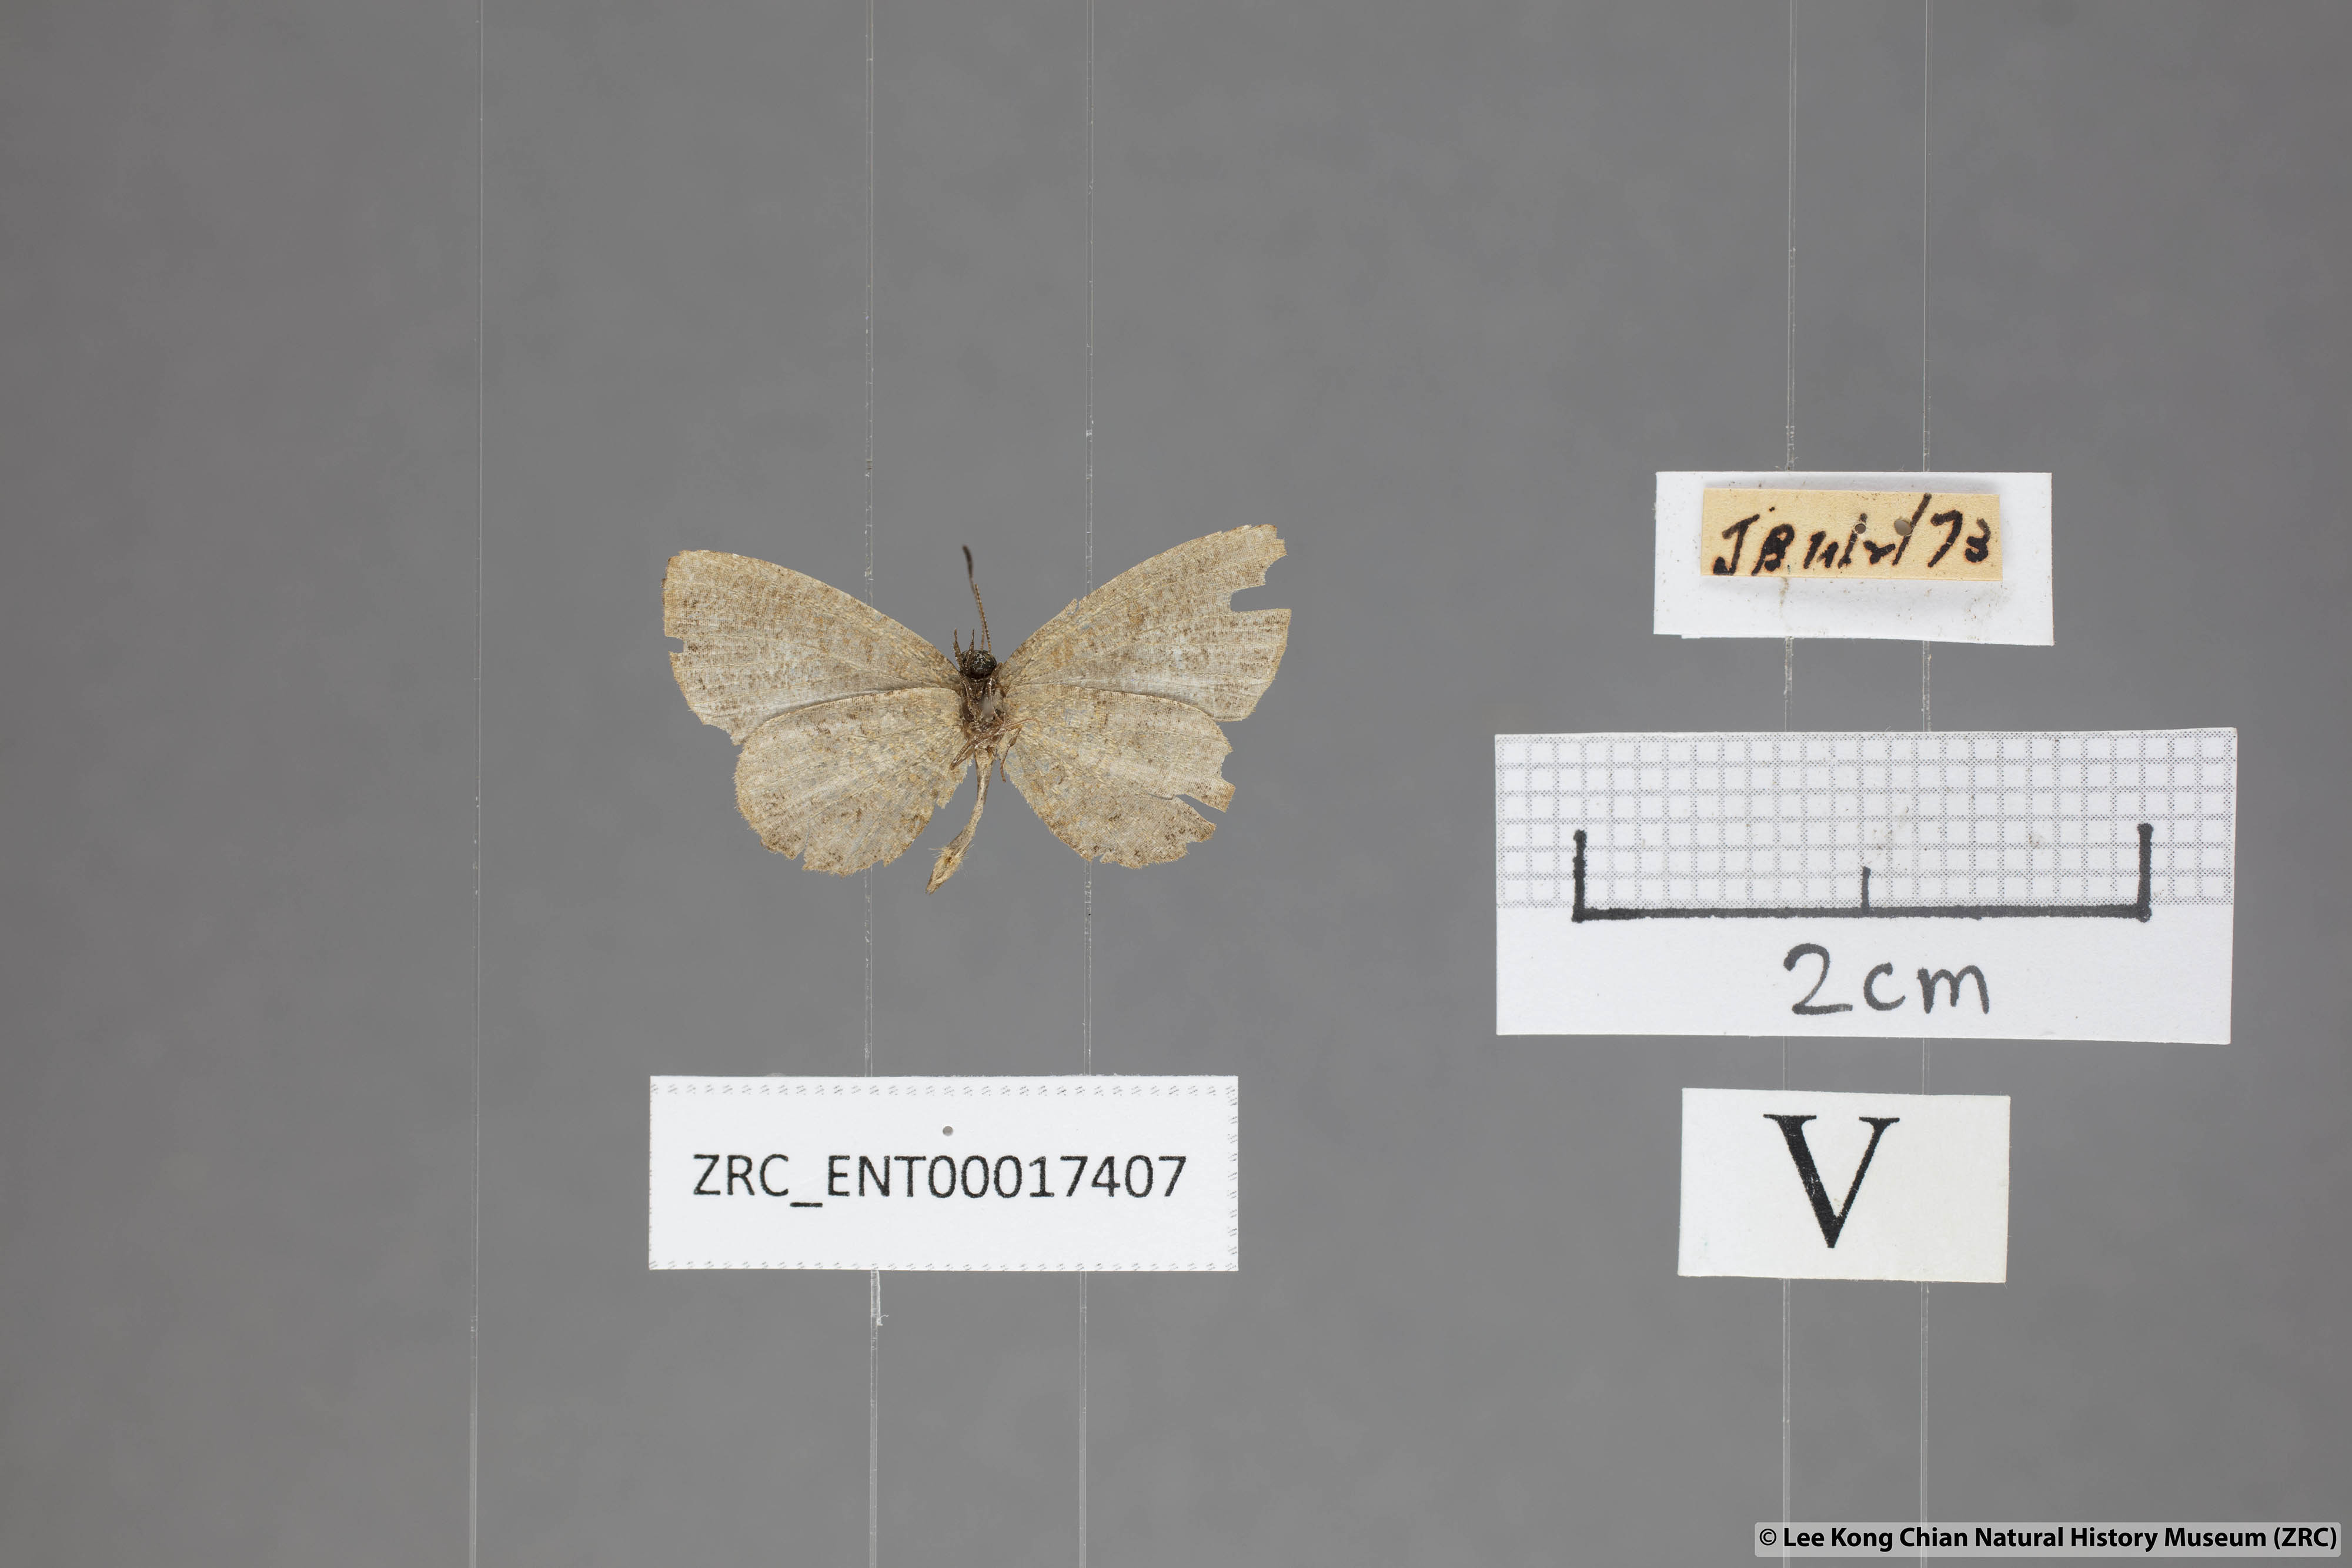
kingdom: Animalia
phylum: Arthropoda
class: Insecta
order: Lepidoptera
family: Lycaenidae
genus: Logania
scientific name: Logania distanti
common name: Dark mottle
